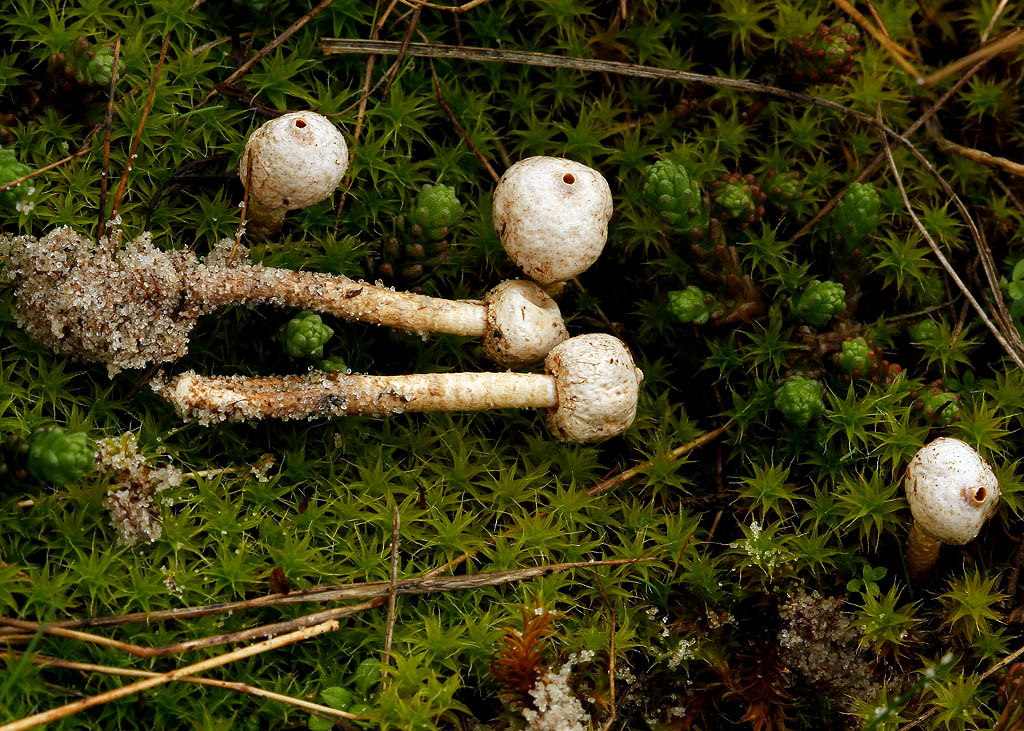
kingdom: Fungi
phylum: Basidiomycota
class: Agaricomycetes
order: Agaricales
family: Agaricaceae
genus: Tulostoma
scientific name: Tulostoma brumale
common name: vinter-stilkbovist
